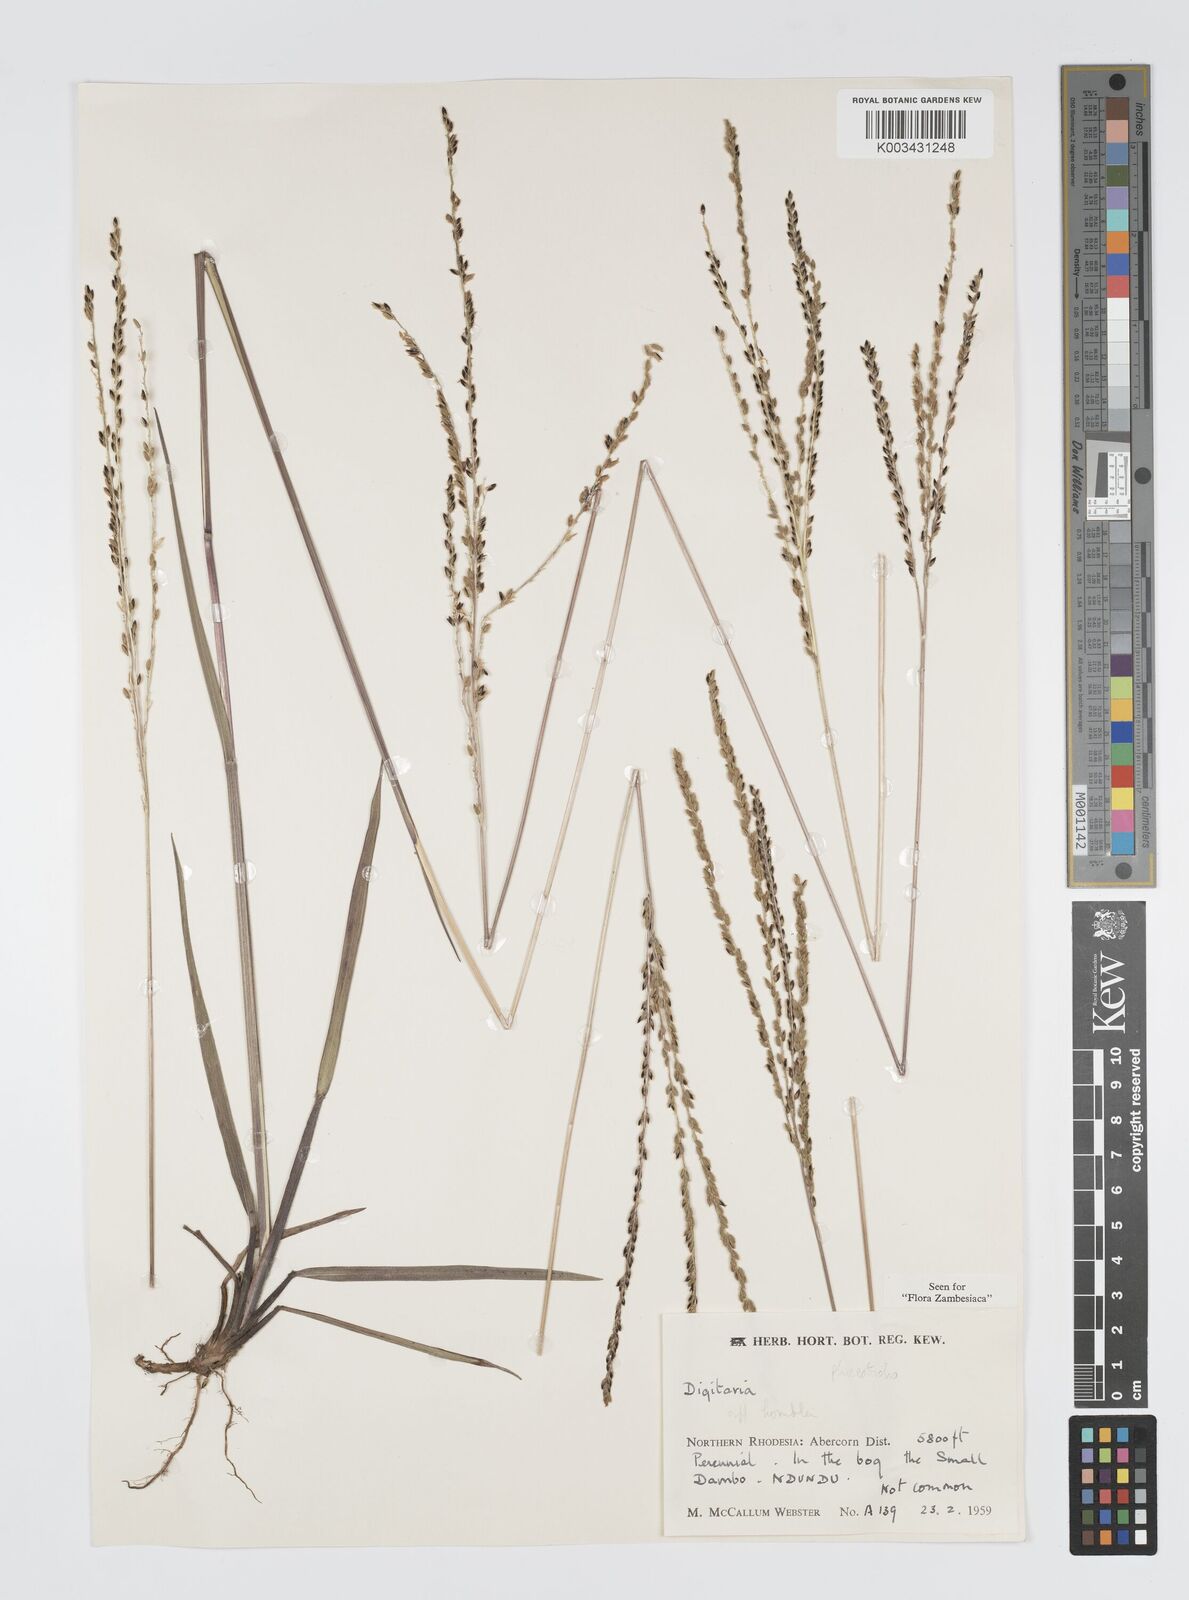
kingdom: Plantae
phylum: Tracheophyta
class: Liliopsida
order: Poales
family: Poaceae
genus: Digitaria
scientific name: Digitaria hyalina
